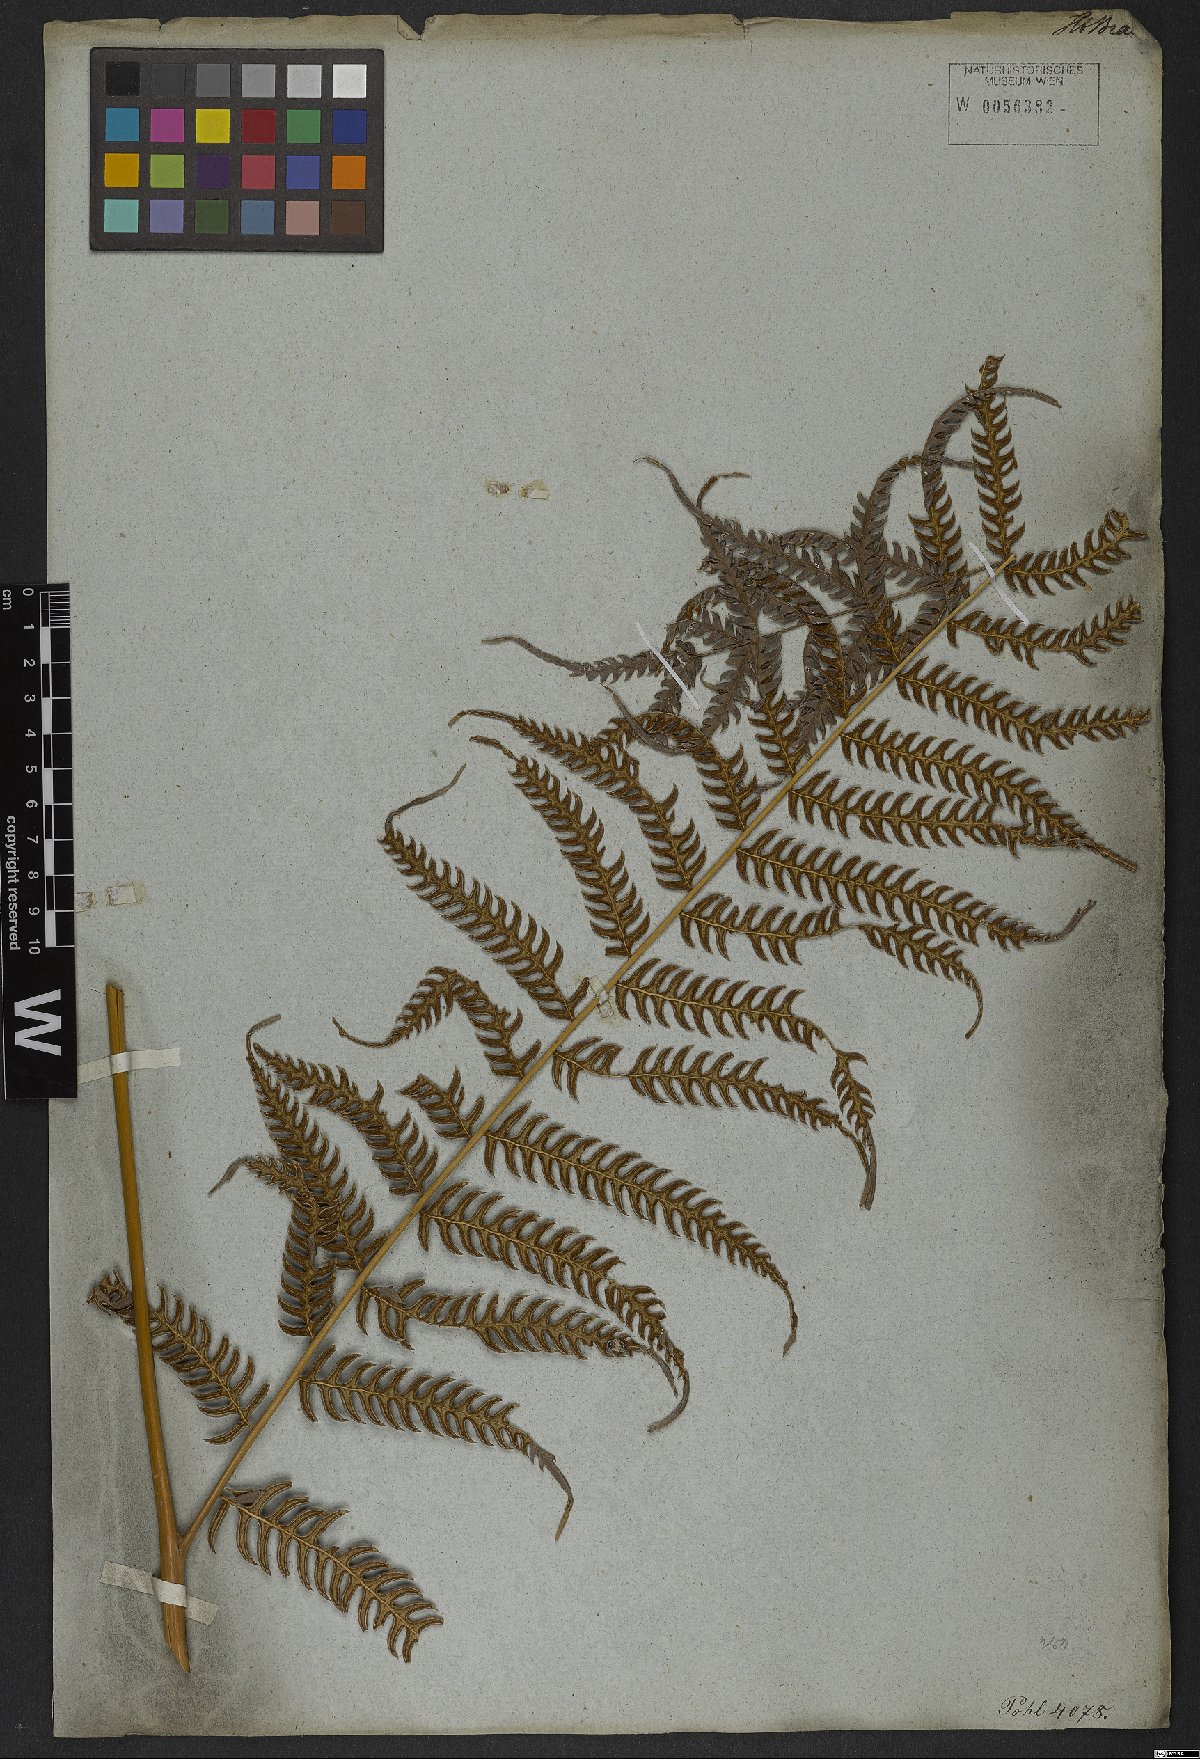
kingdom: Plantae
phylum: Tracheophyta
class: Polypodiopsida
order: Polypodiales
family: Pteridaceae
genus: Pteris
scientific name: Pteris deflexa
